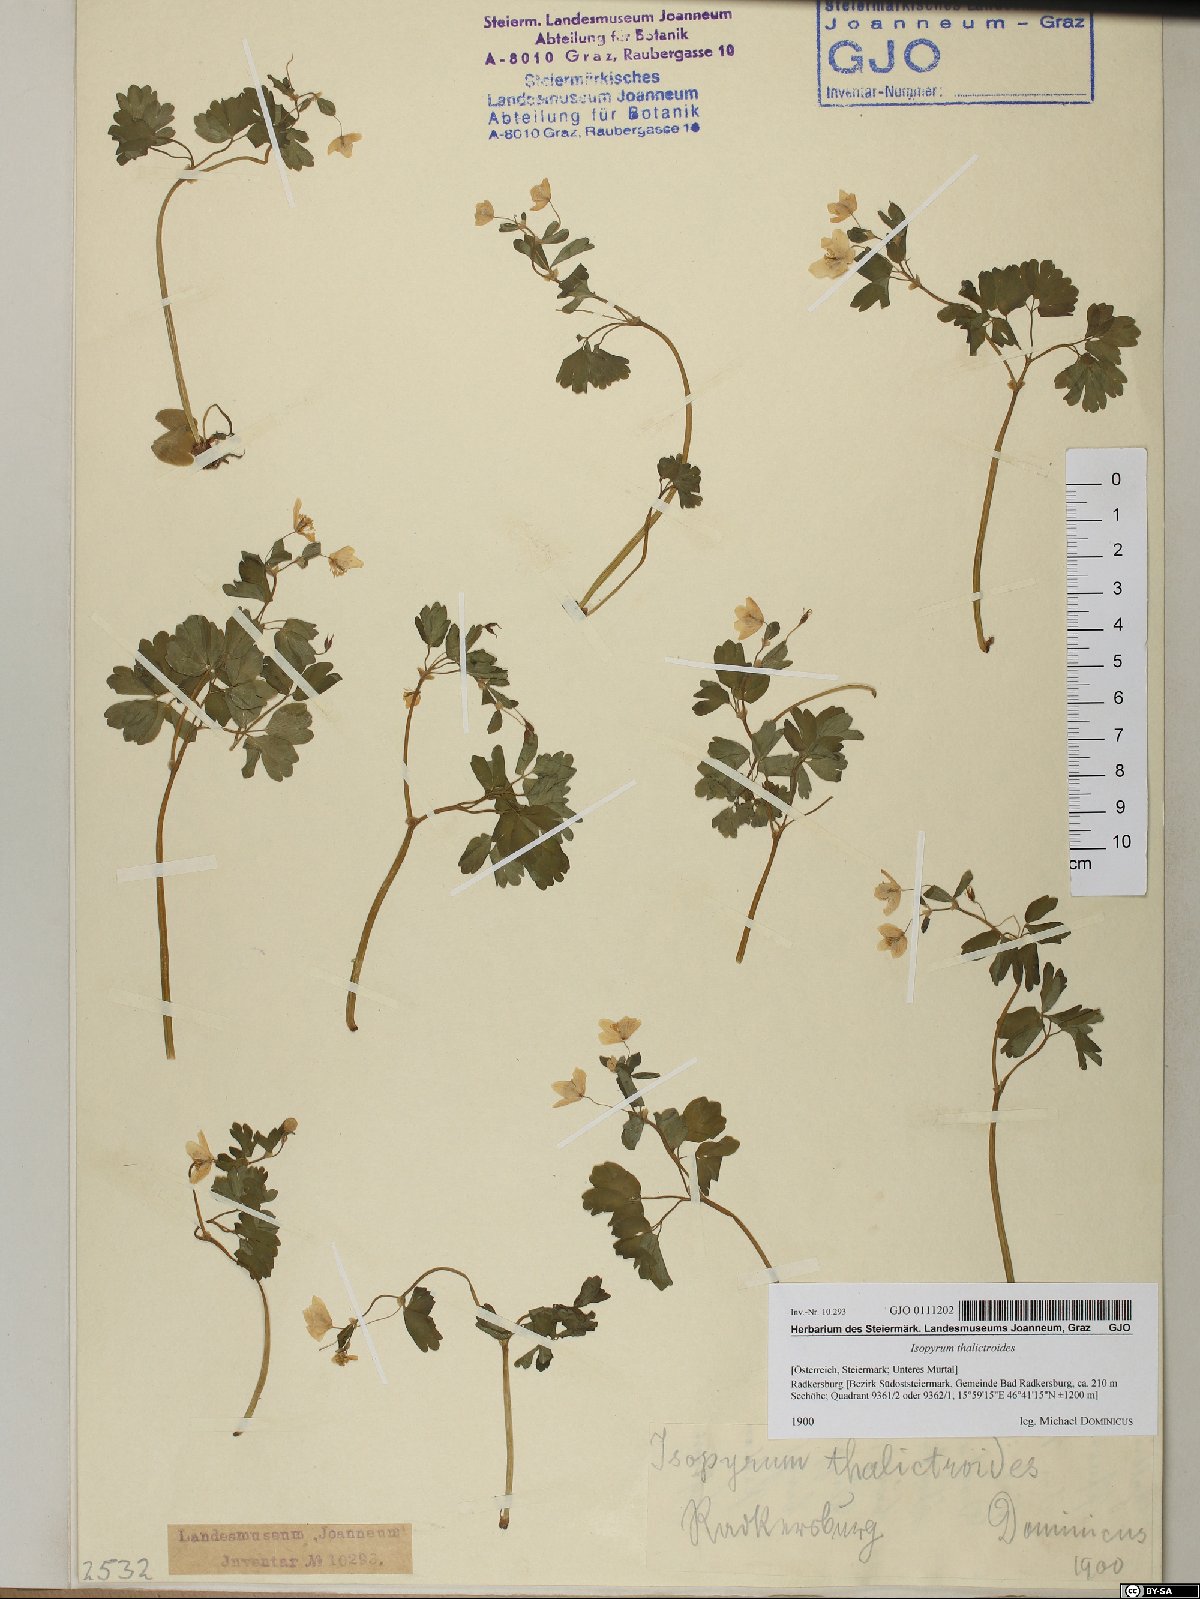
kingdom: Plantae
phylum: Tracheophyta
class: Magnoliopsida
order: Ranunculales
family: Ranunculaceae
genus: Isopyrum
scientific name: Isopyrum thalictroides
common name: Isopyrum
